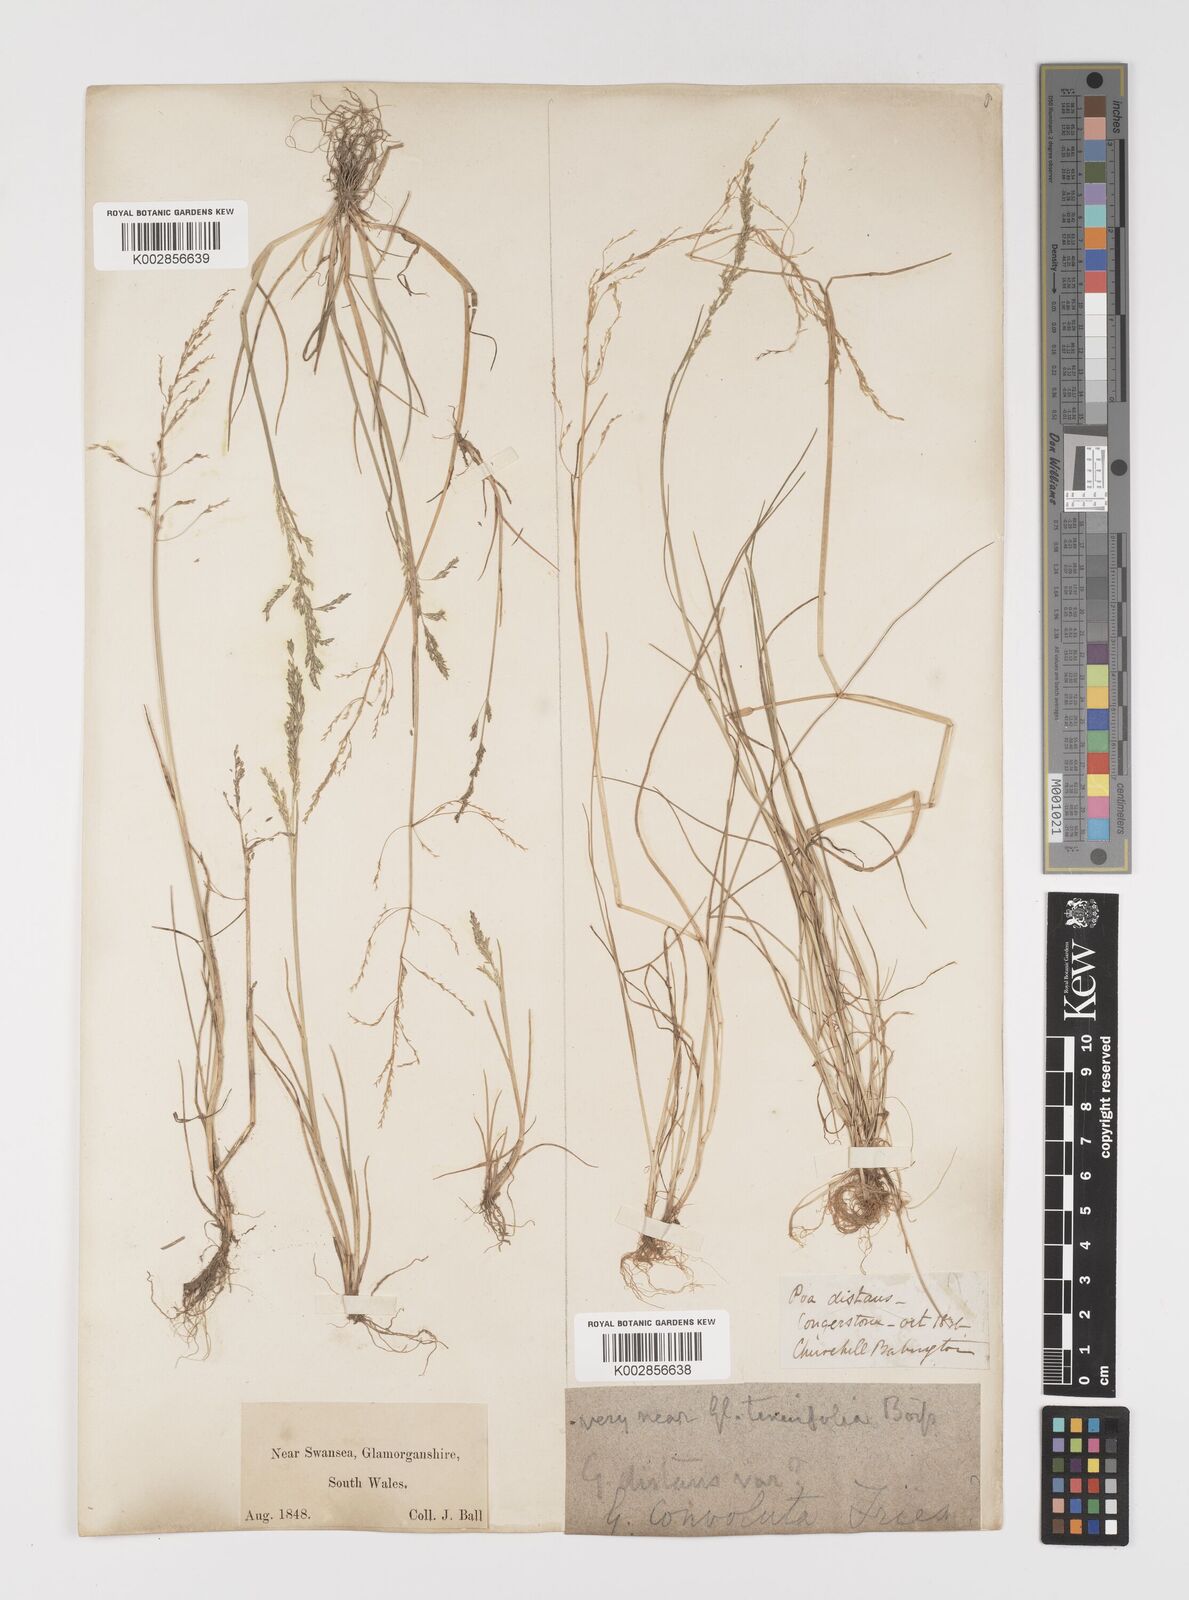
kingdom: Plantae
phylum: Tracheophyta
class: Liliopsida
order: Poales
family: Poaceae
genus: Puccinellia
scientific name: Puccinellia distans
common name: Weeping alkaligrass
